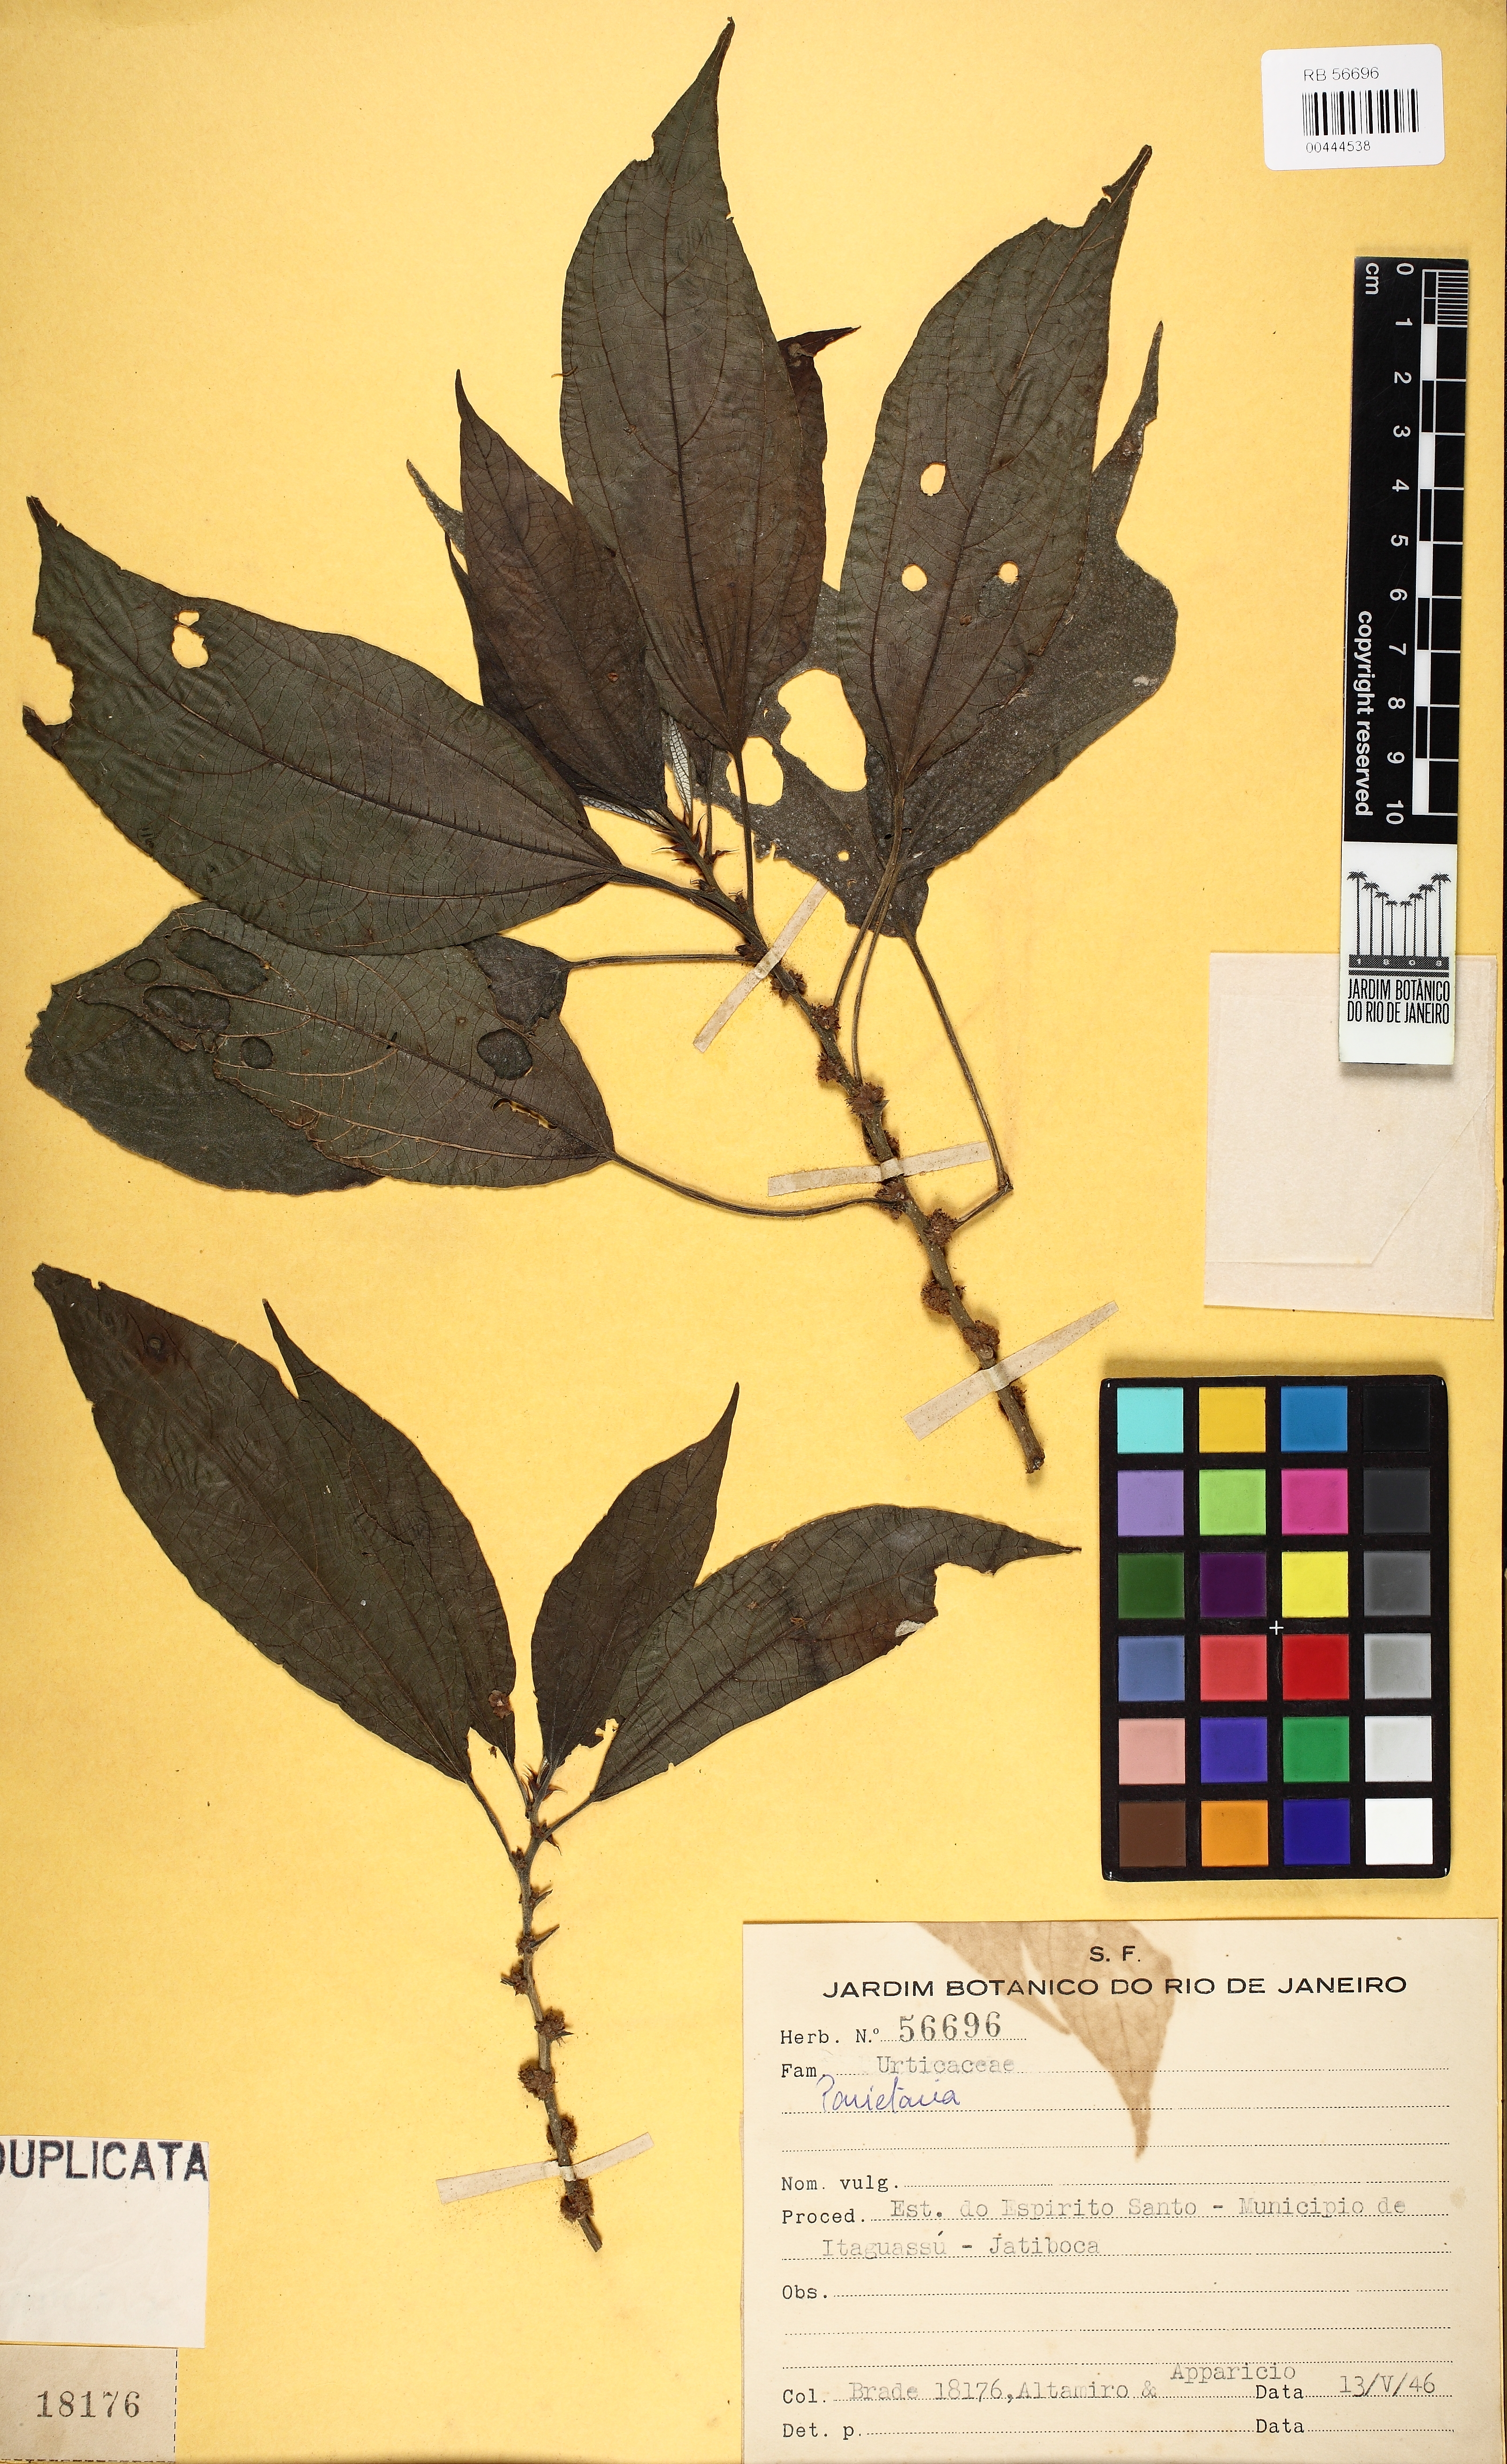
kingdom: Plantae
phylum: Tracheophyta
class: Magnoliopsida
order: Rosales
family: Urticaceae
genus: Parietaria
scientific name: Parietaria
